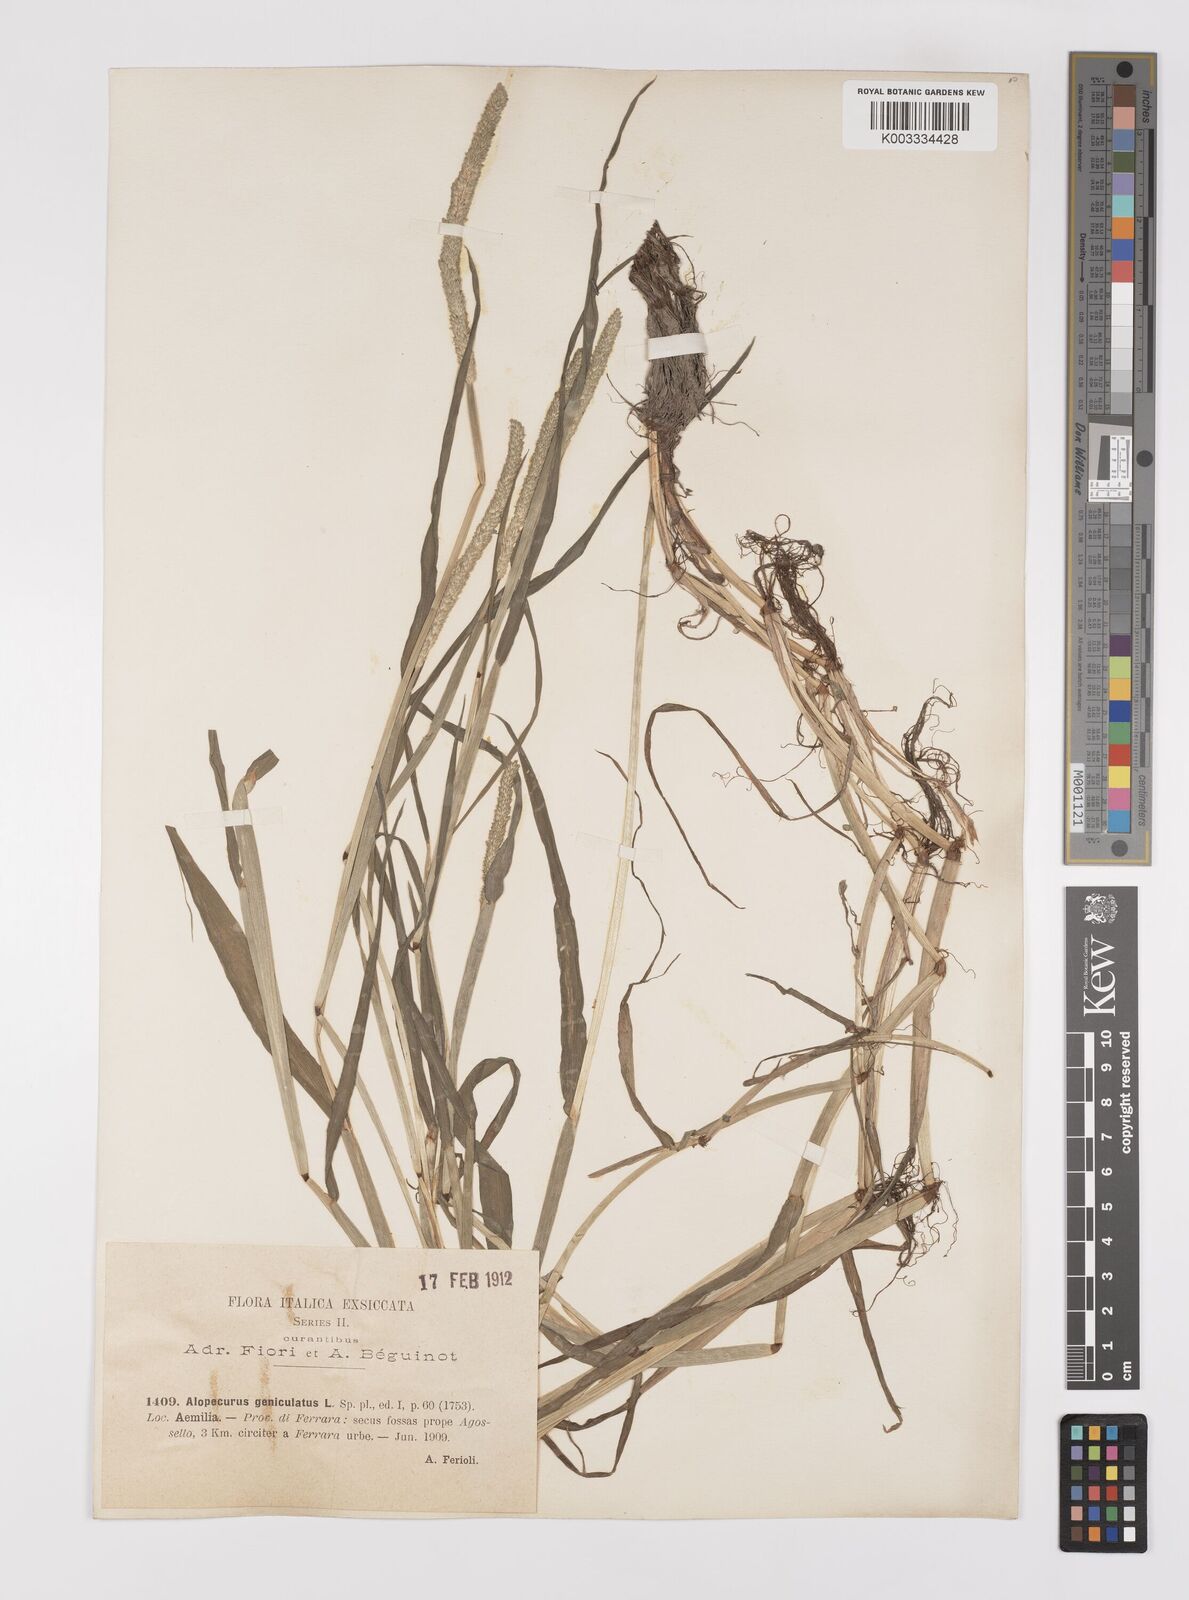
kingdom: Plantae
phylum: Tracheophyta
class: Liliopsida
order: Poales
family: Poaceae
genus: Alopecurus
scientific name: Alopecurus aequalis
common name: Orange foxtail
